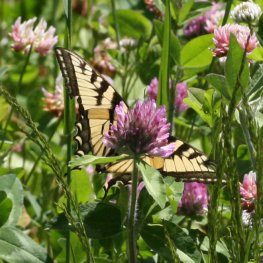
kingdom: Animalia
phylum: Arthropoda
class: Insecta
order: Lepidoptera
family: Papilionidae
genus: Pterourus
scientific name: Pterourus canadensis
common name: Canadian Tiger Swallowtail
